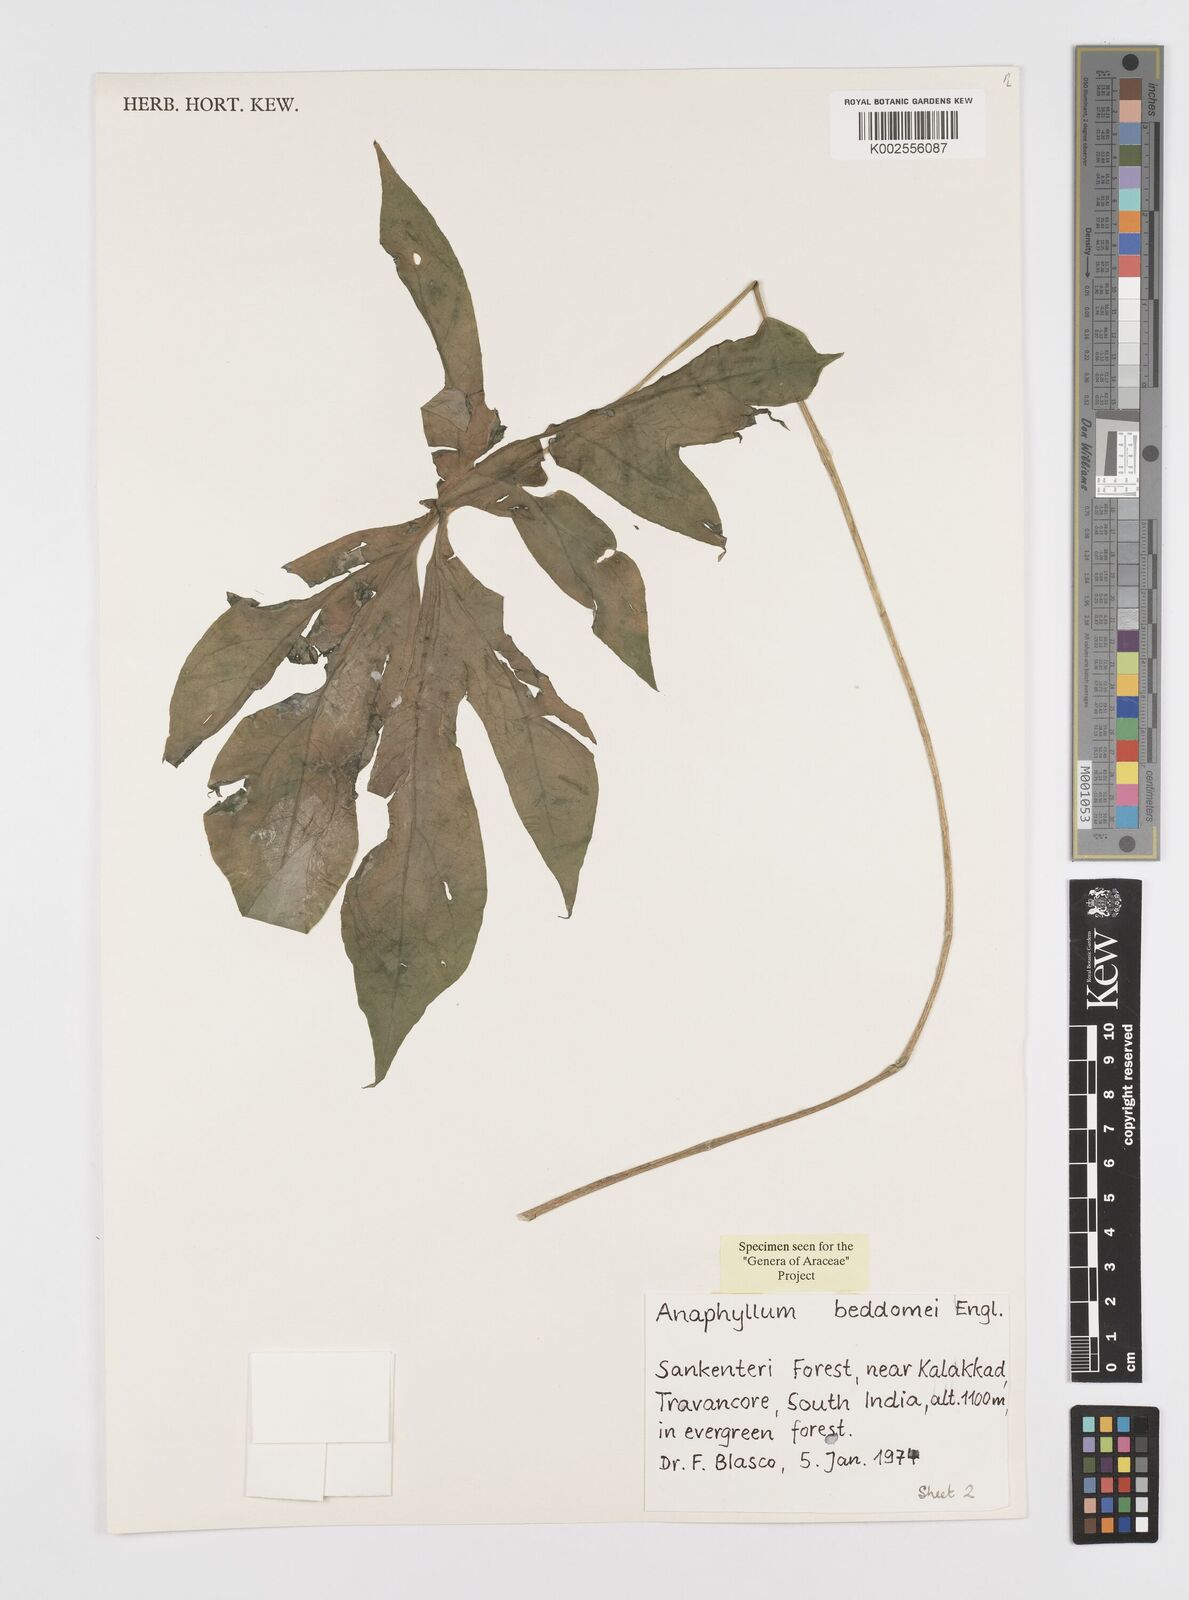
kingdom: Plantae
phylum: Tracheophyta
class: Liliopsida
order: Alismatales
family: Araceae
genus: Anaphyllum
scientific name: Anaphyllum beddomei
